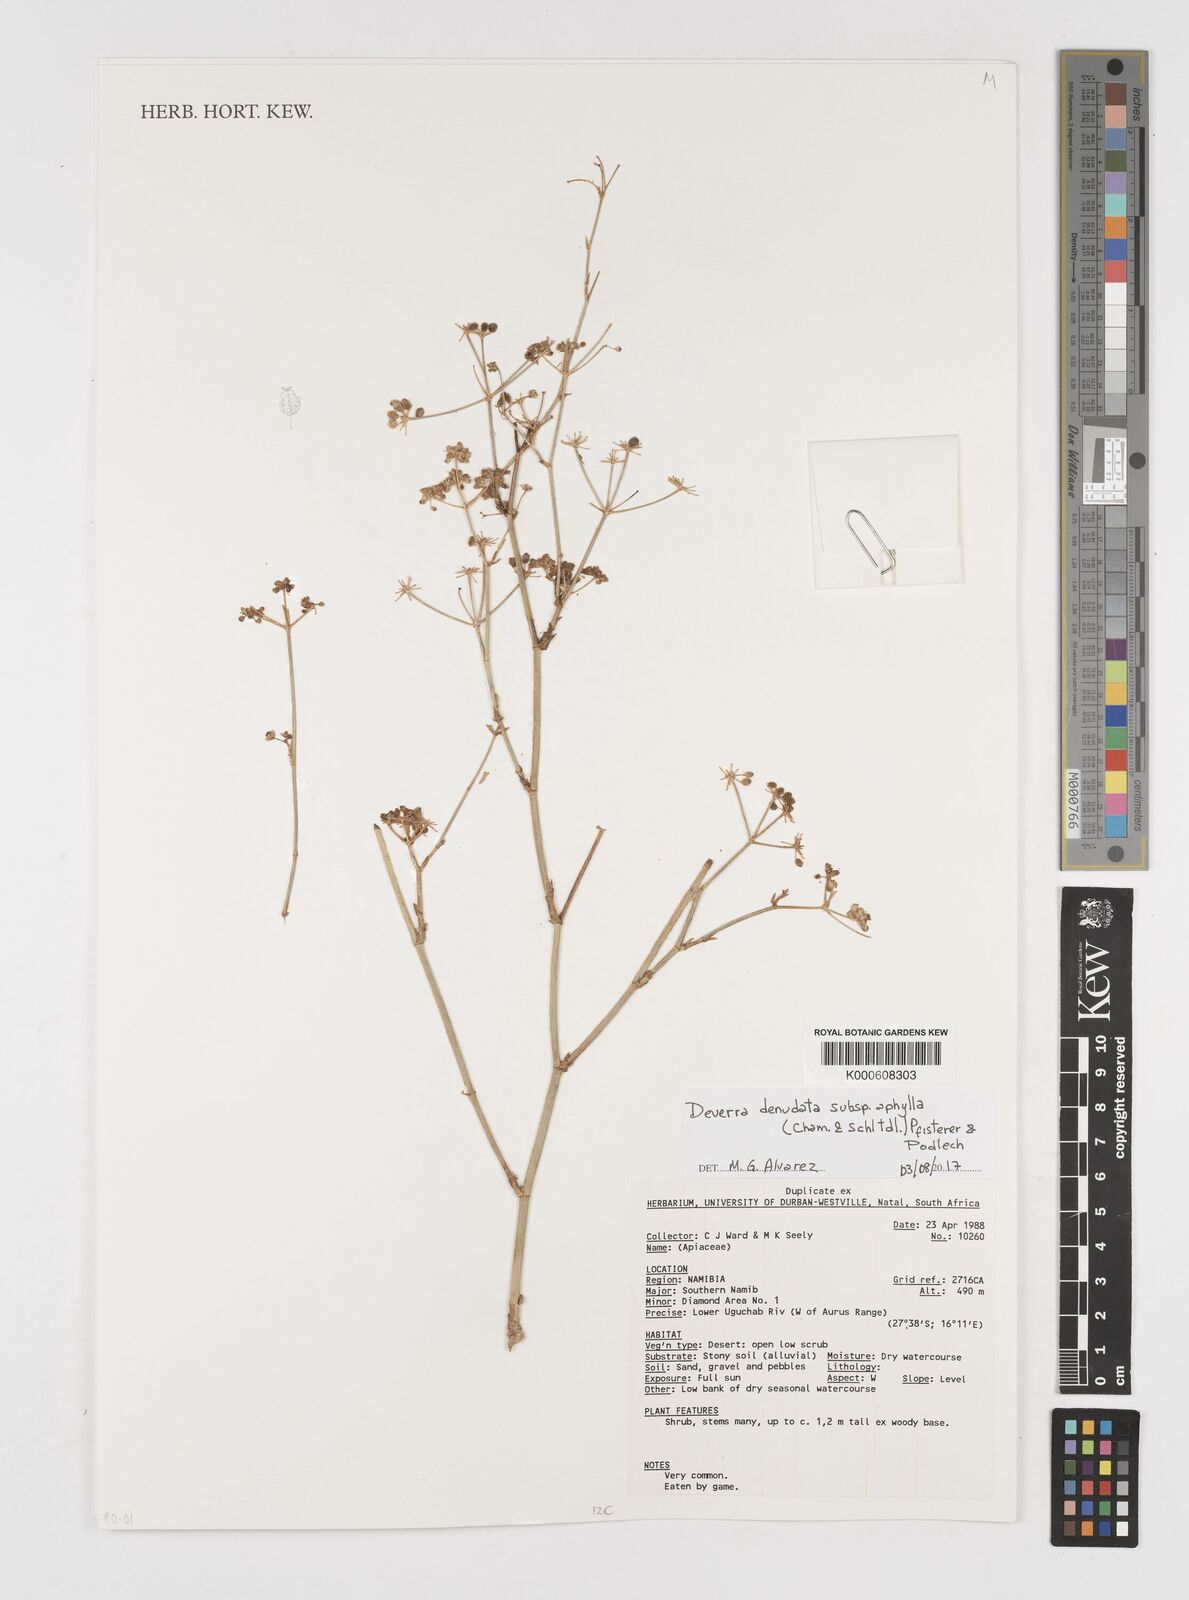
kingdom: Plantae
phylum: Tracheophyta
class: Magnoliopsida
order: Apiales
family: Apiaceae
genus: Deverra
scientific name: Deverra aphylla
